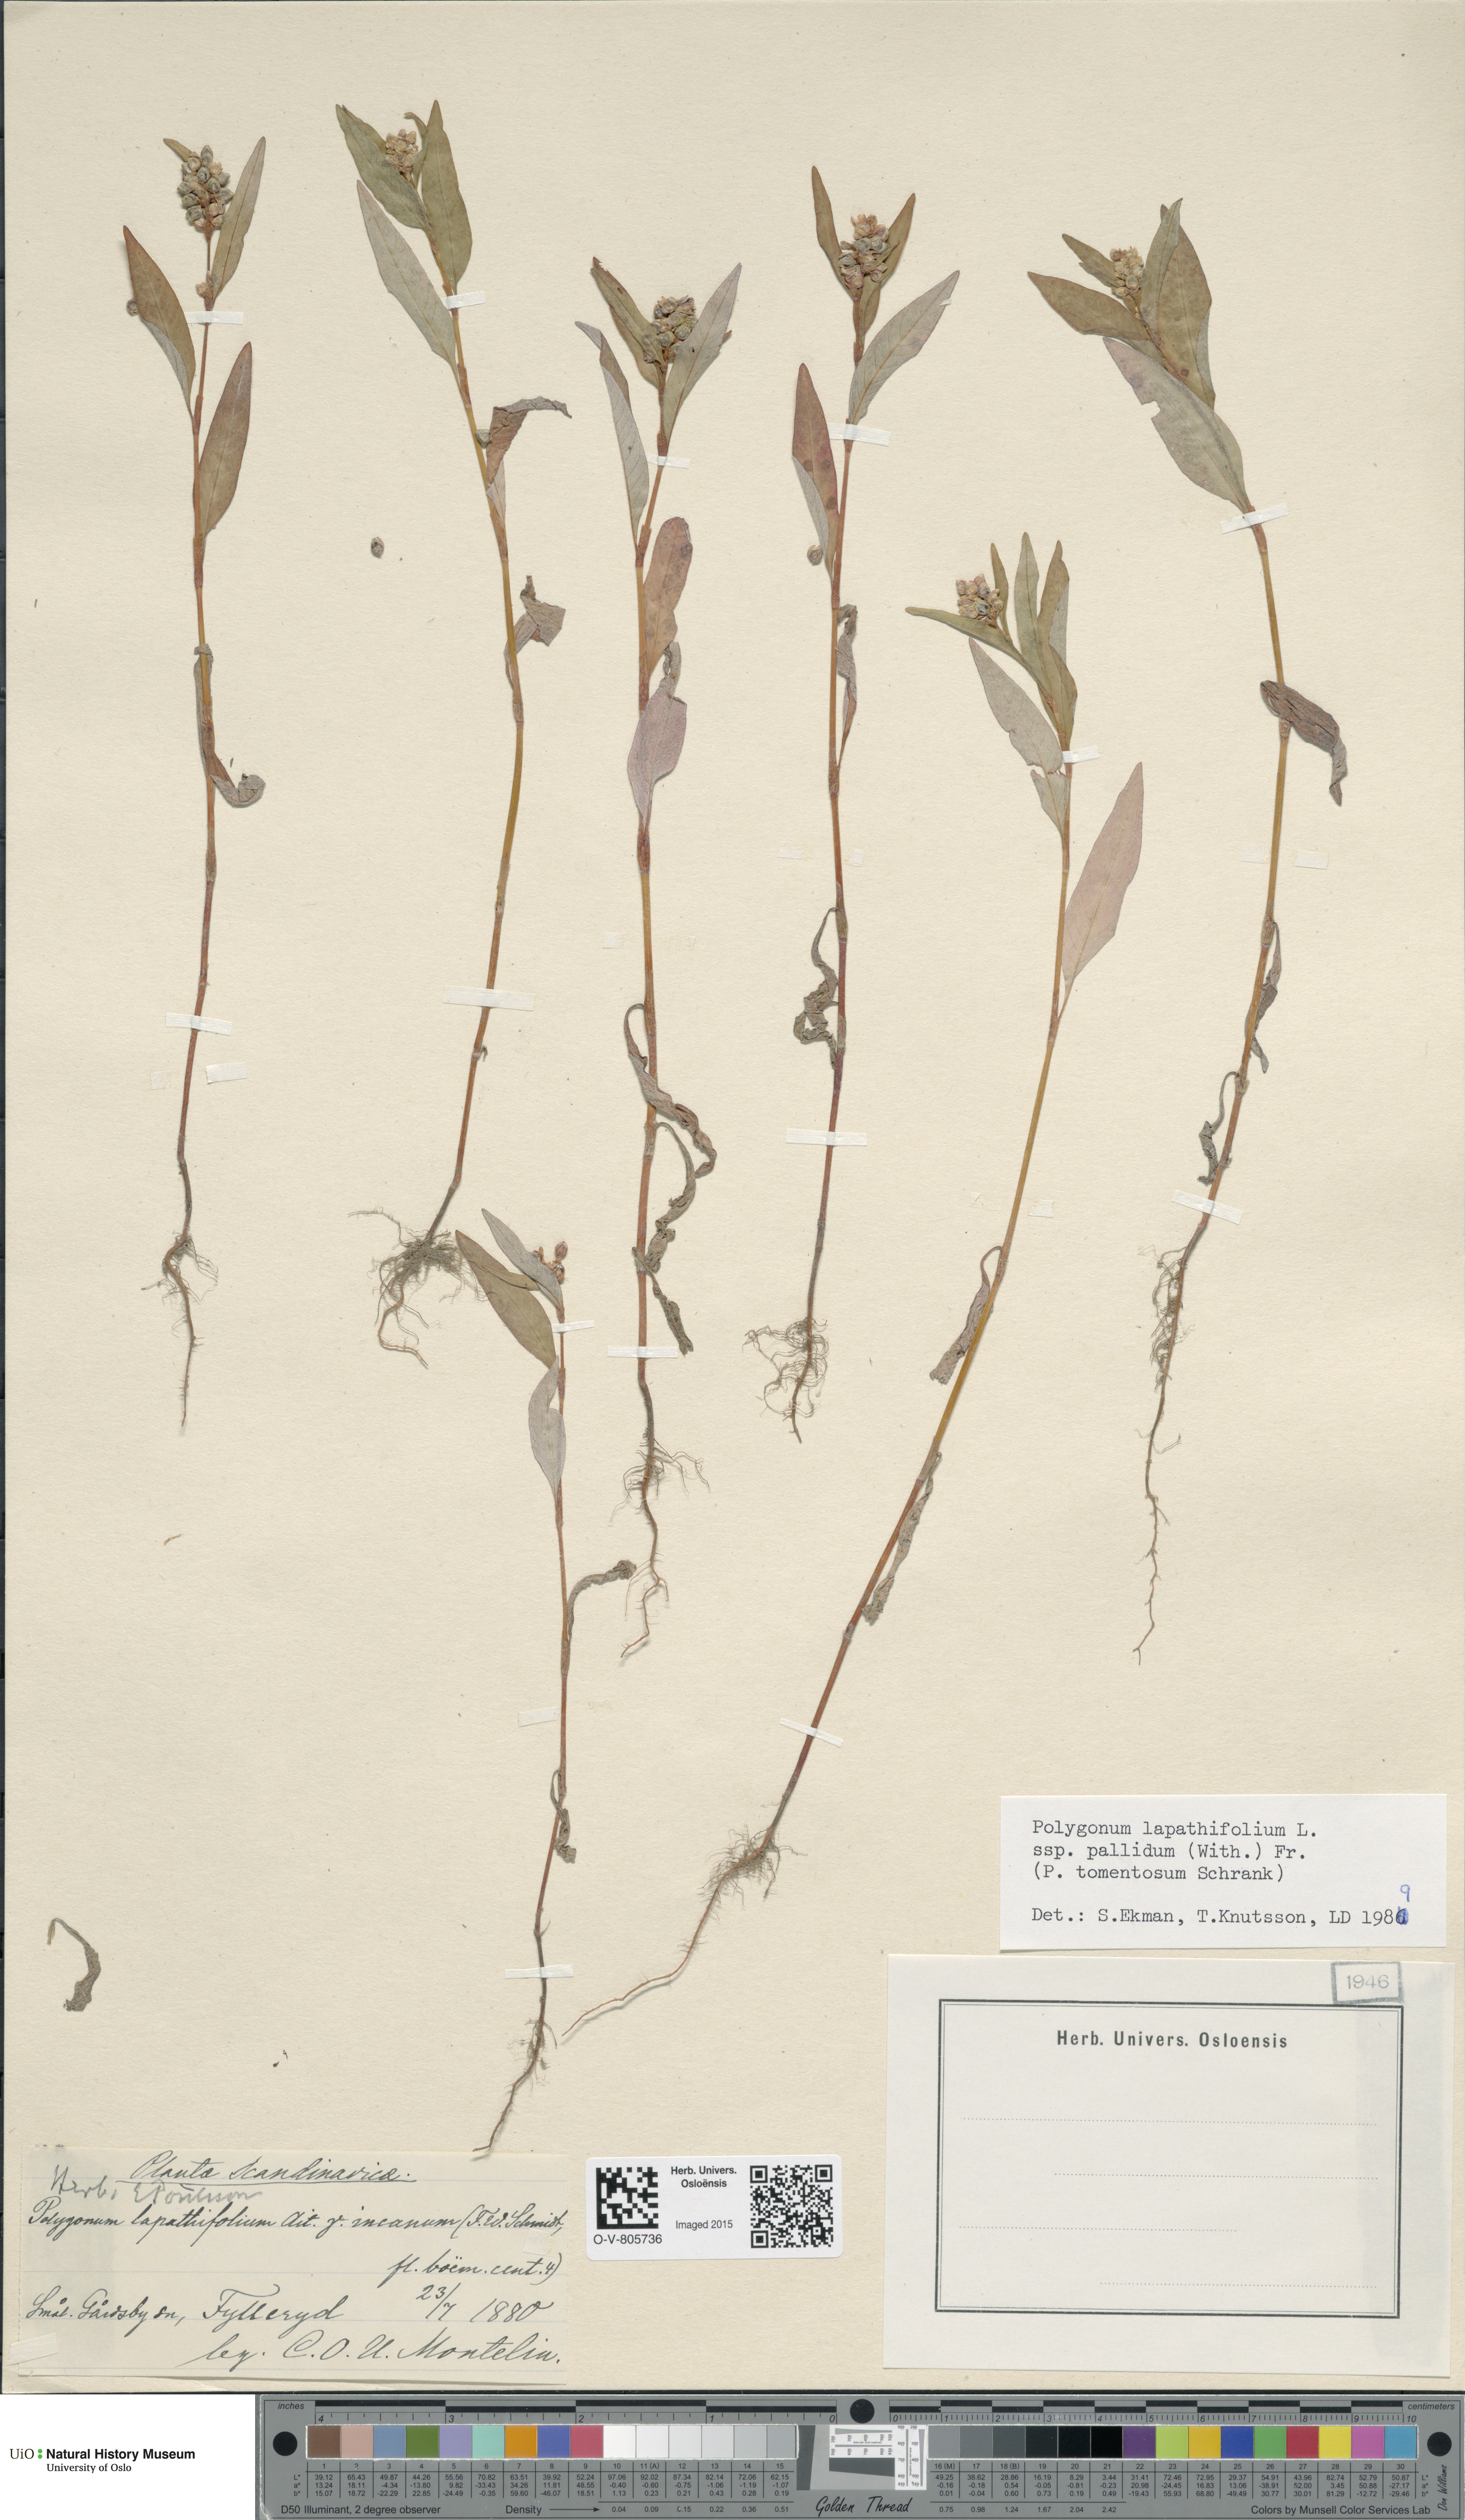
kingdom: Plantae
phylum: Tracheophyta
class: Magnoliopsida
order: Caryophyllales
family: Polygonaceae
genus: Persicaria
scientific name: Persicaria lapathifolia
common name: Curlytop knotweed
